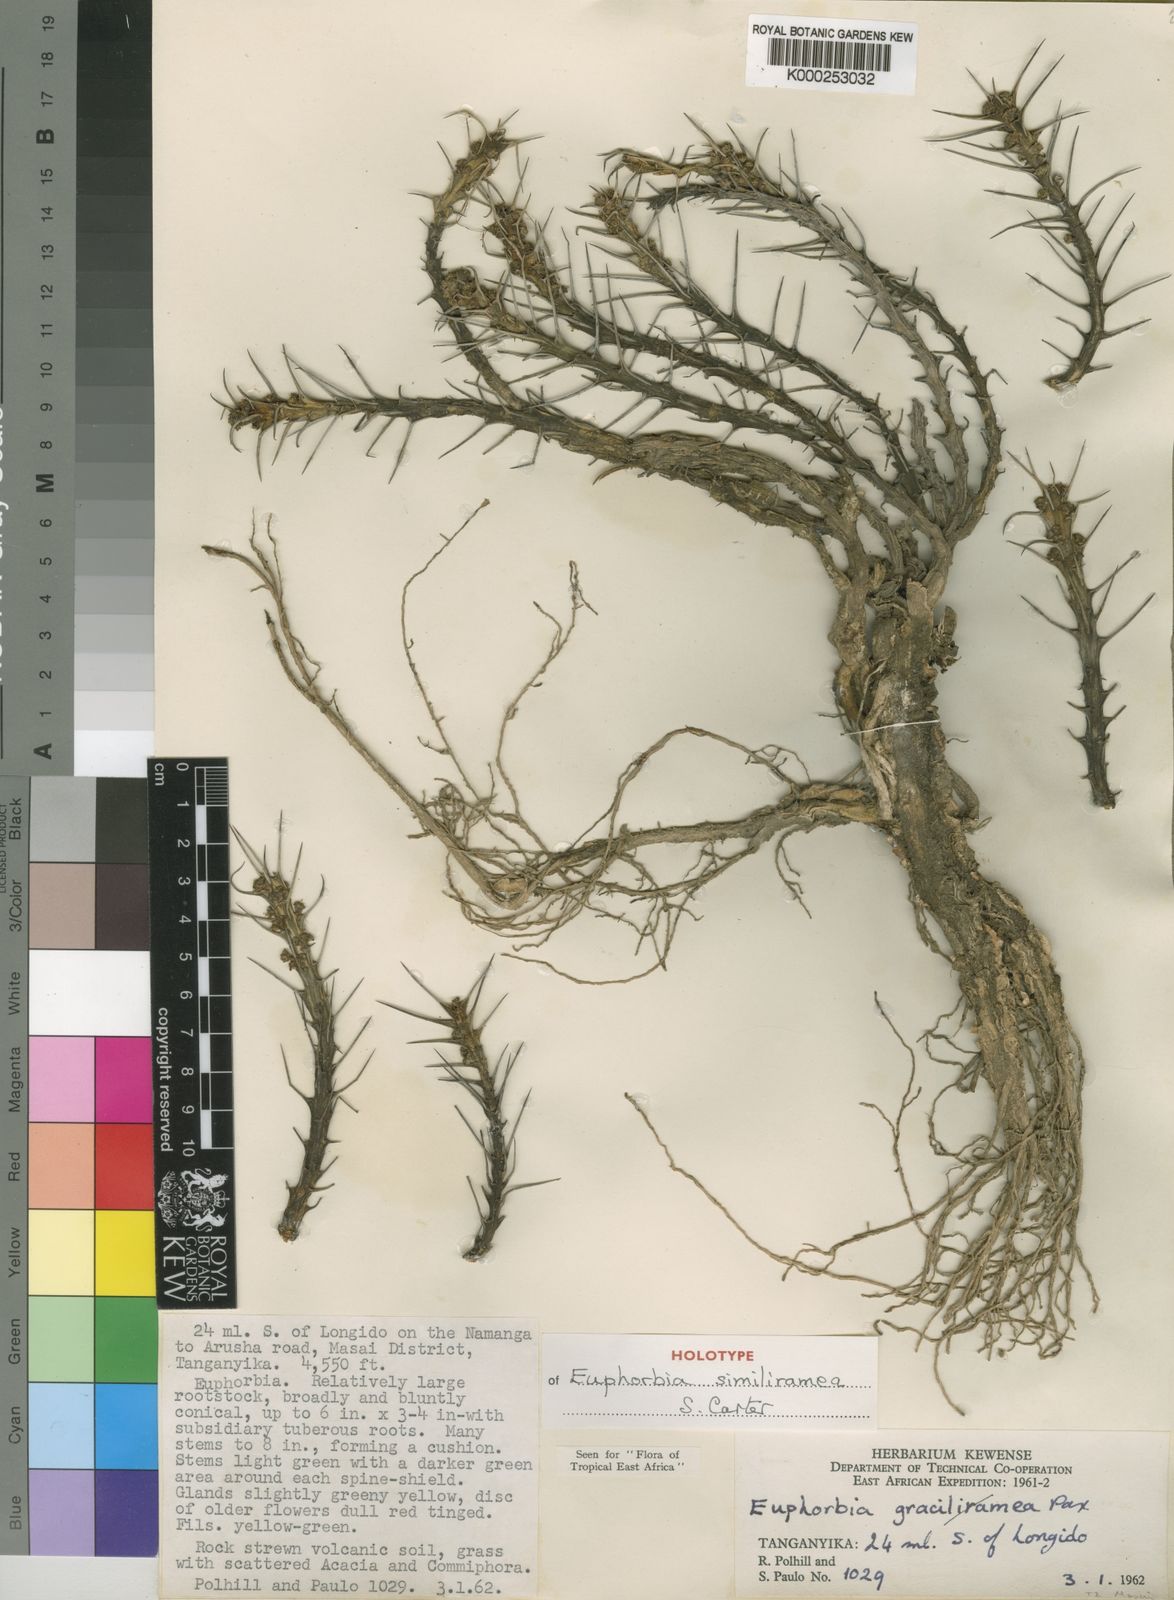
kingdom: Plantae
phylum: Tracheophyta
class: Magnoliopsida
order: Malpighiales
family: Euphorbiaceae
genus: Euphorbia
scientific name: Euphorbia similiramea
